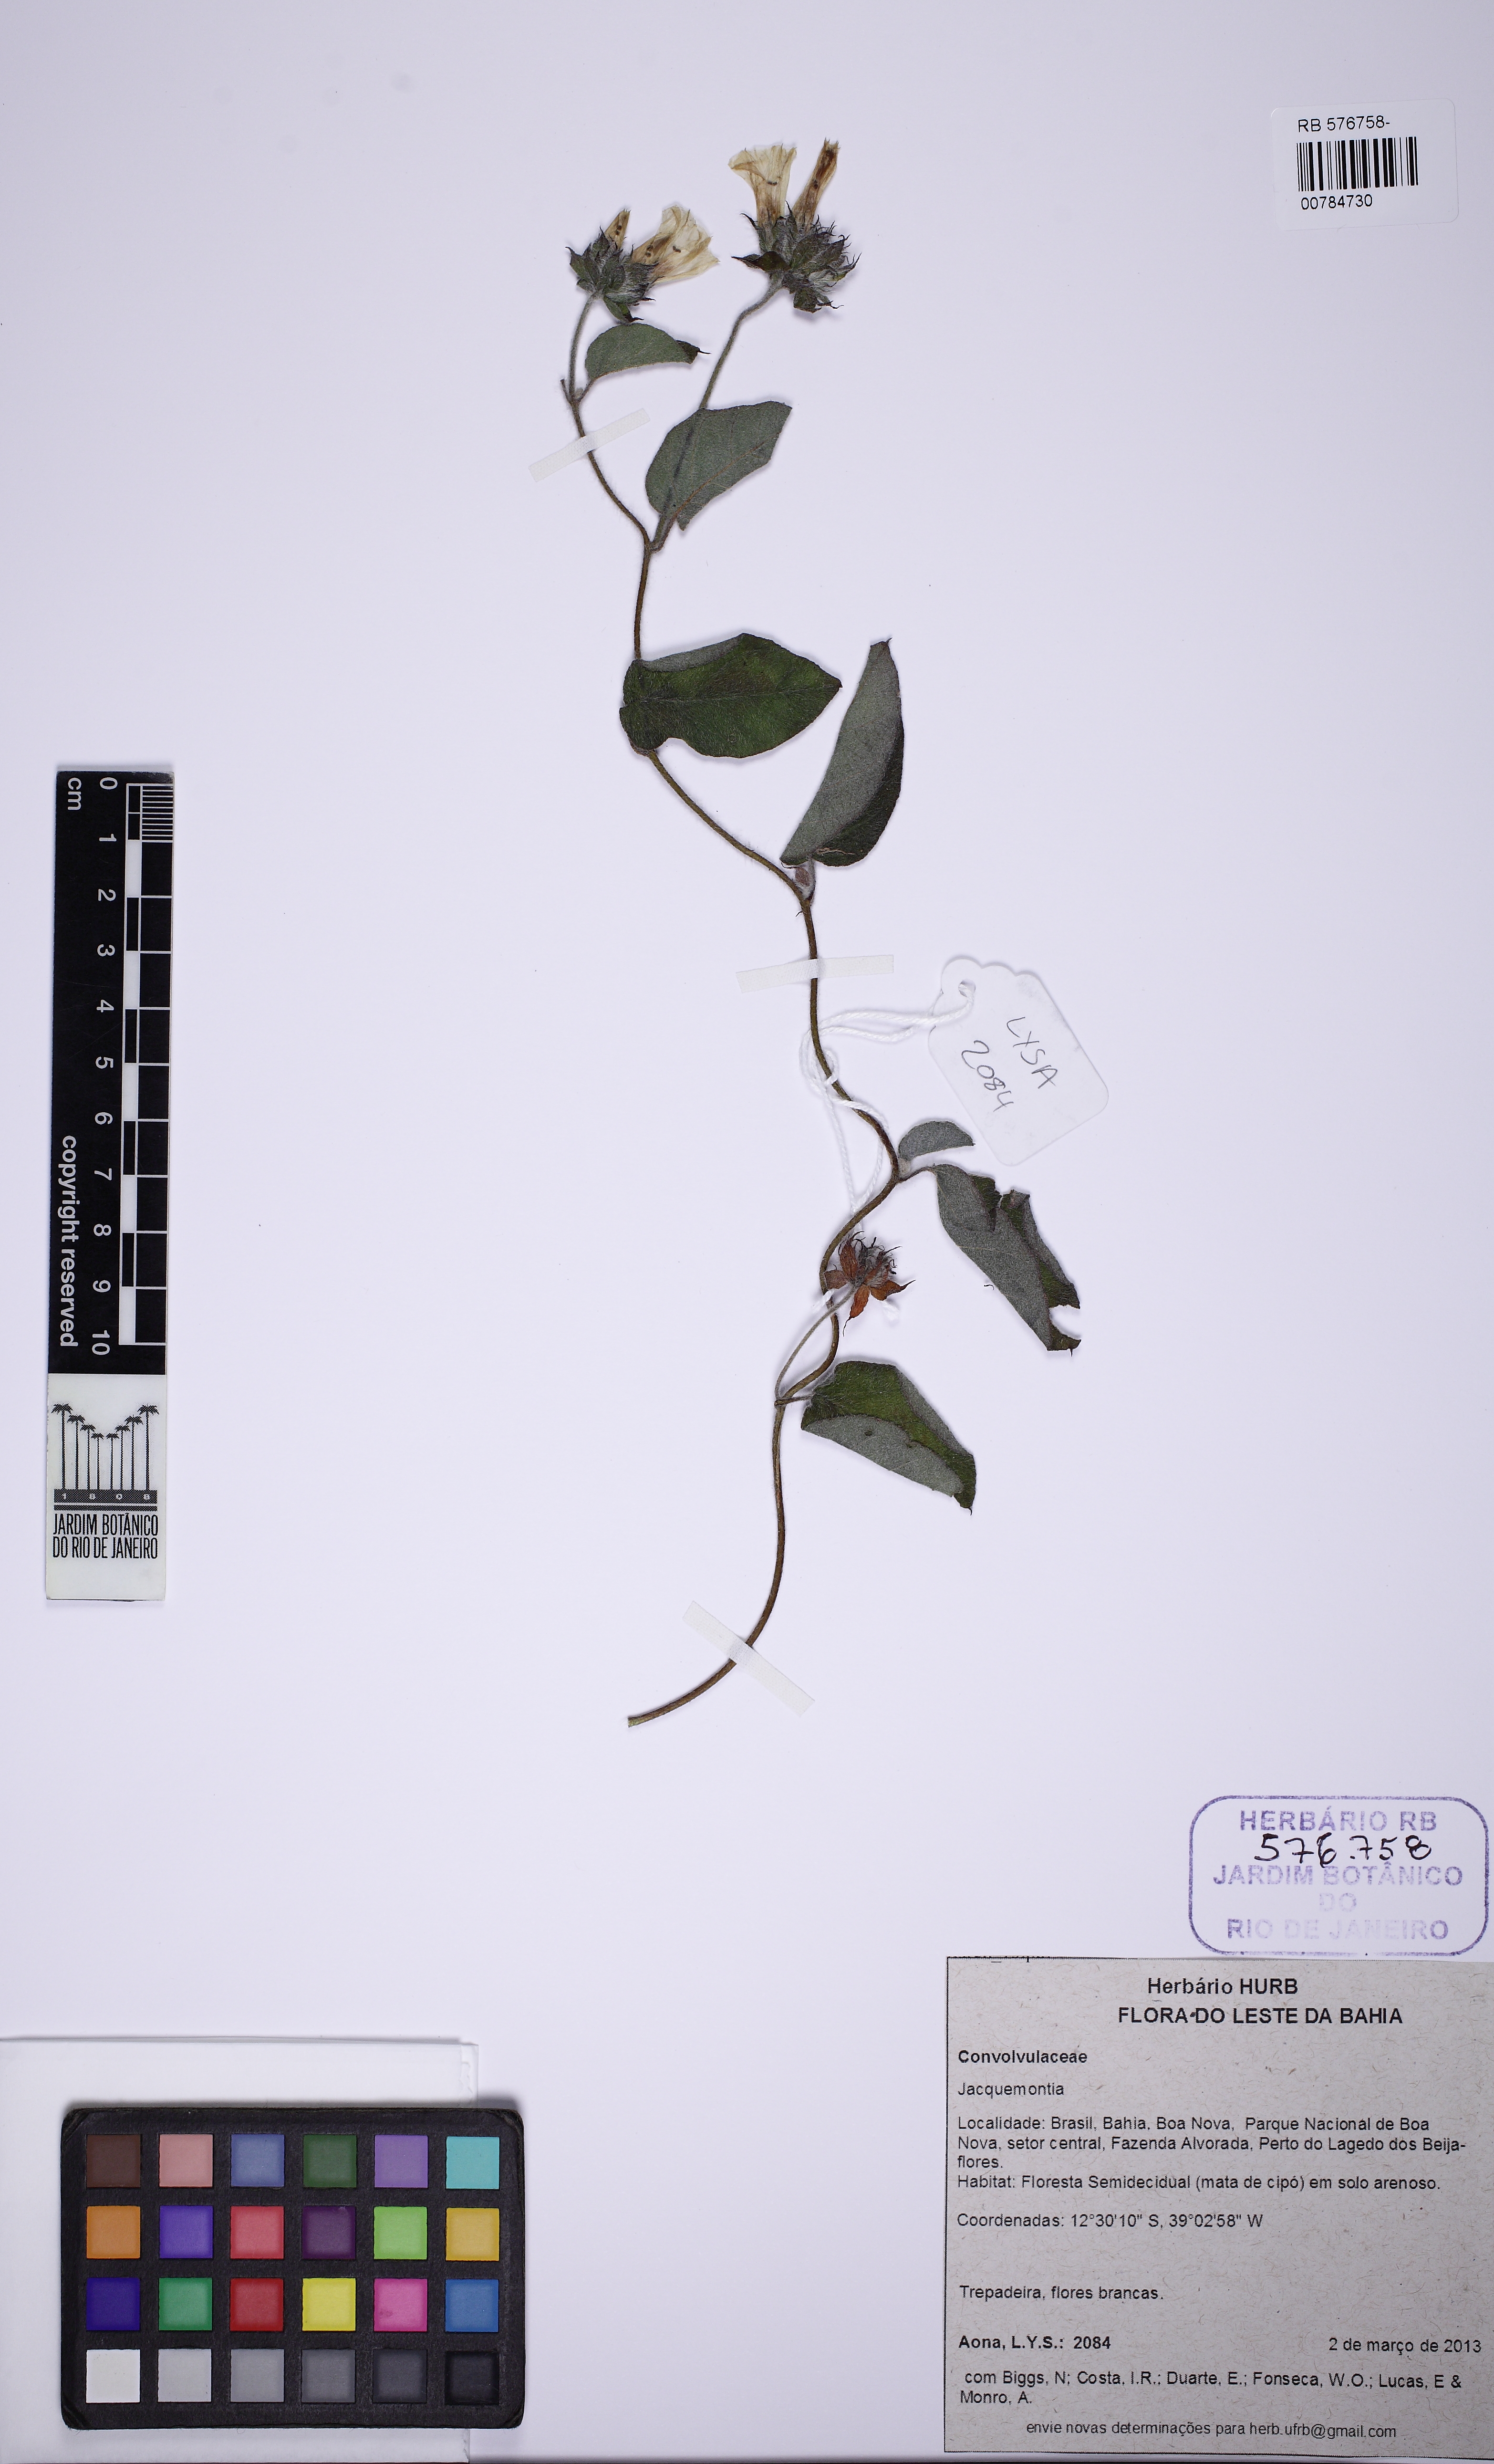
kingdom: Plantae
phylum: Tracheophyta
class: Magnoliopsida
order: Solanales
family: Convolvulaceae
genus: Jacquemontia
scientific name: Jacquemontia bracteosa
